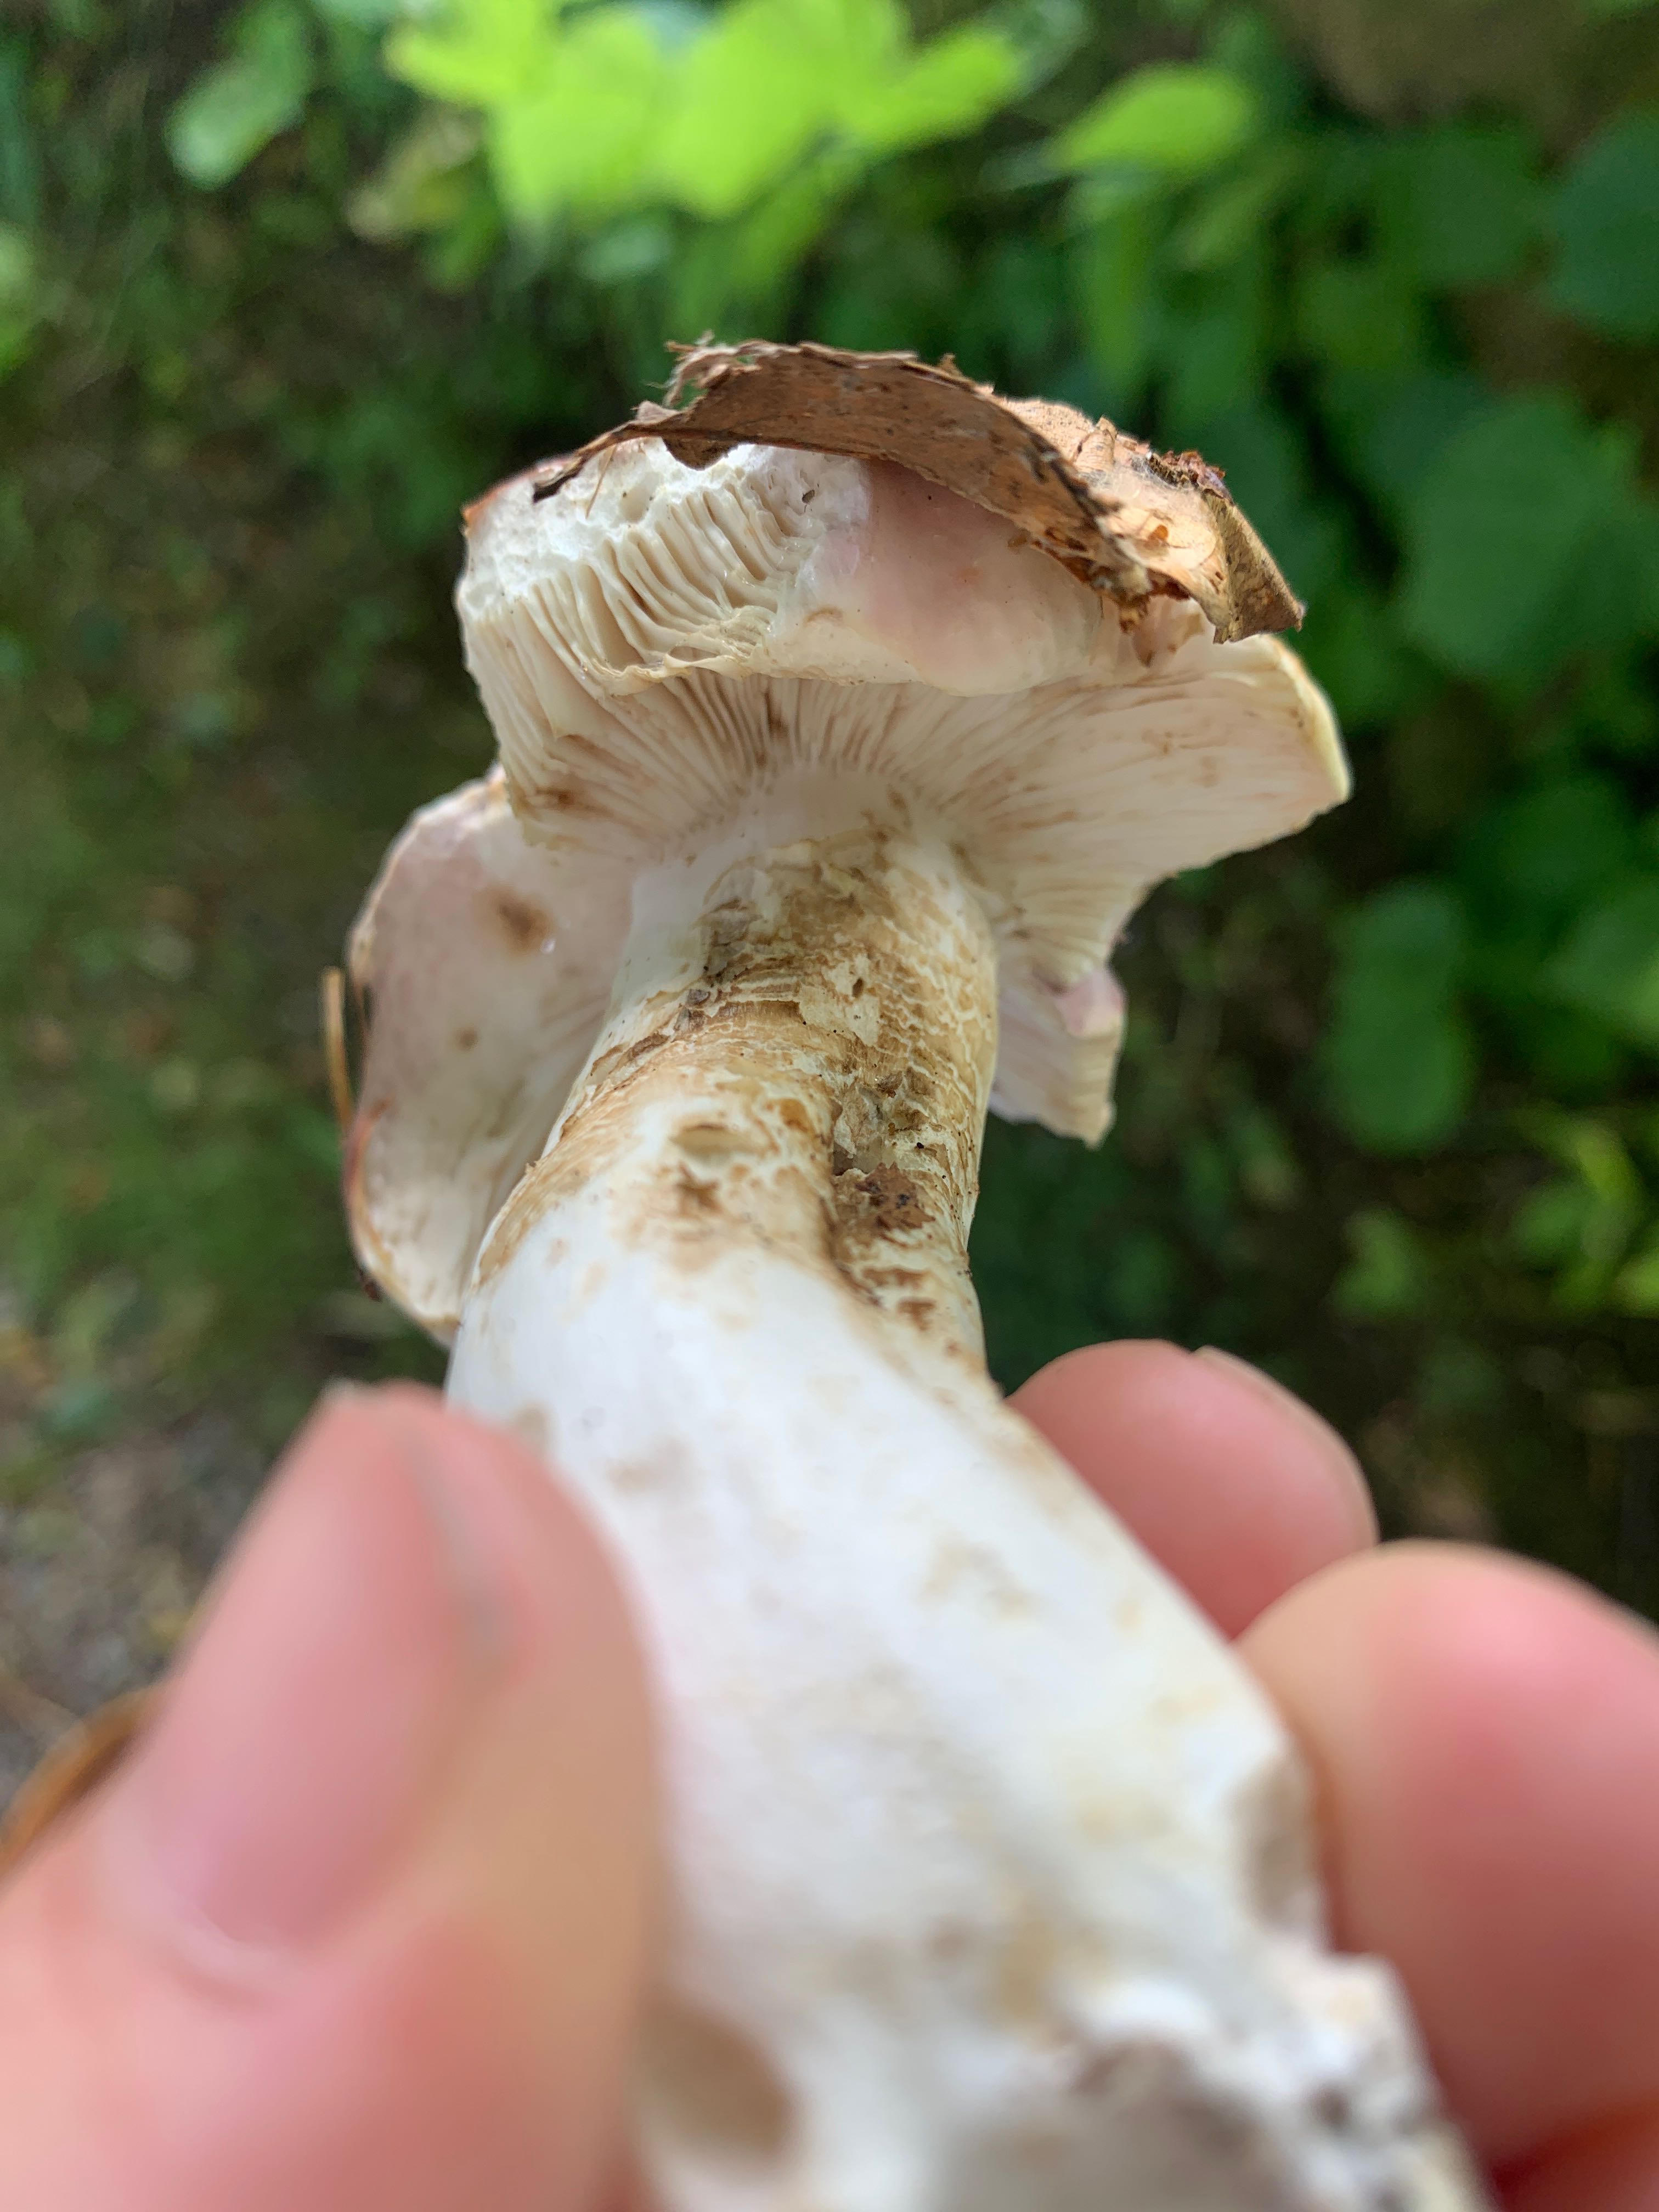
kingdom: Fungi
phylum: Basidiomycota
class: Agaricomycetes
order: Russulales
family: Russulaceae
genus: Russula
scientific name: Russula
